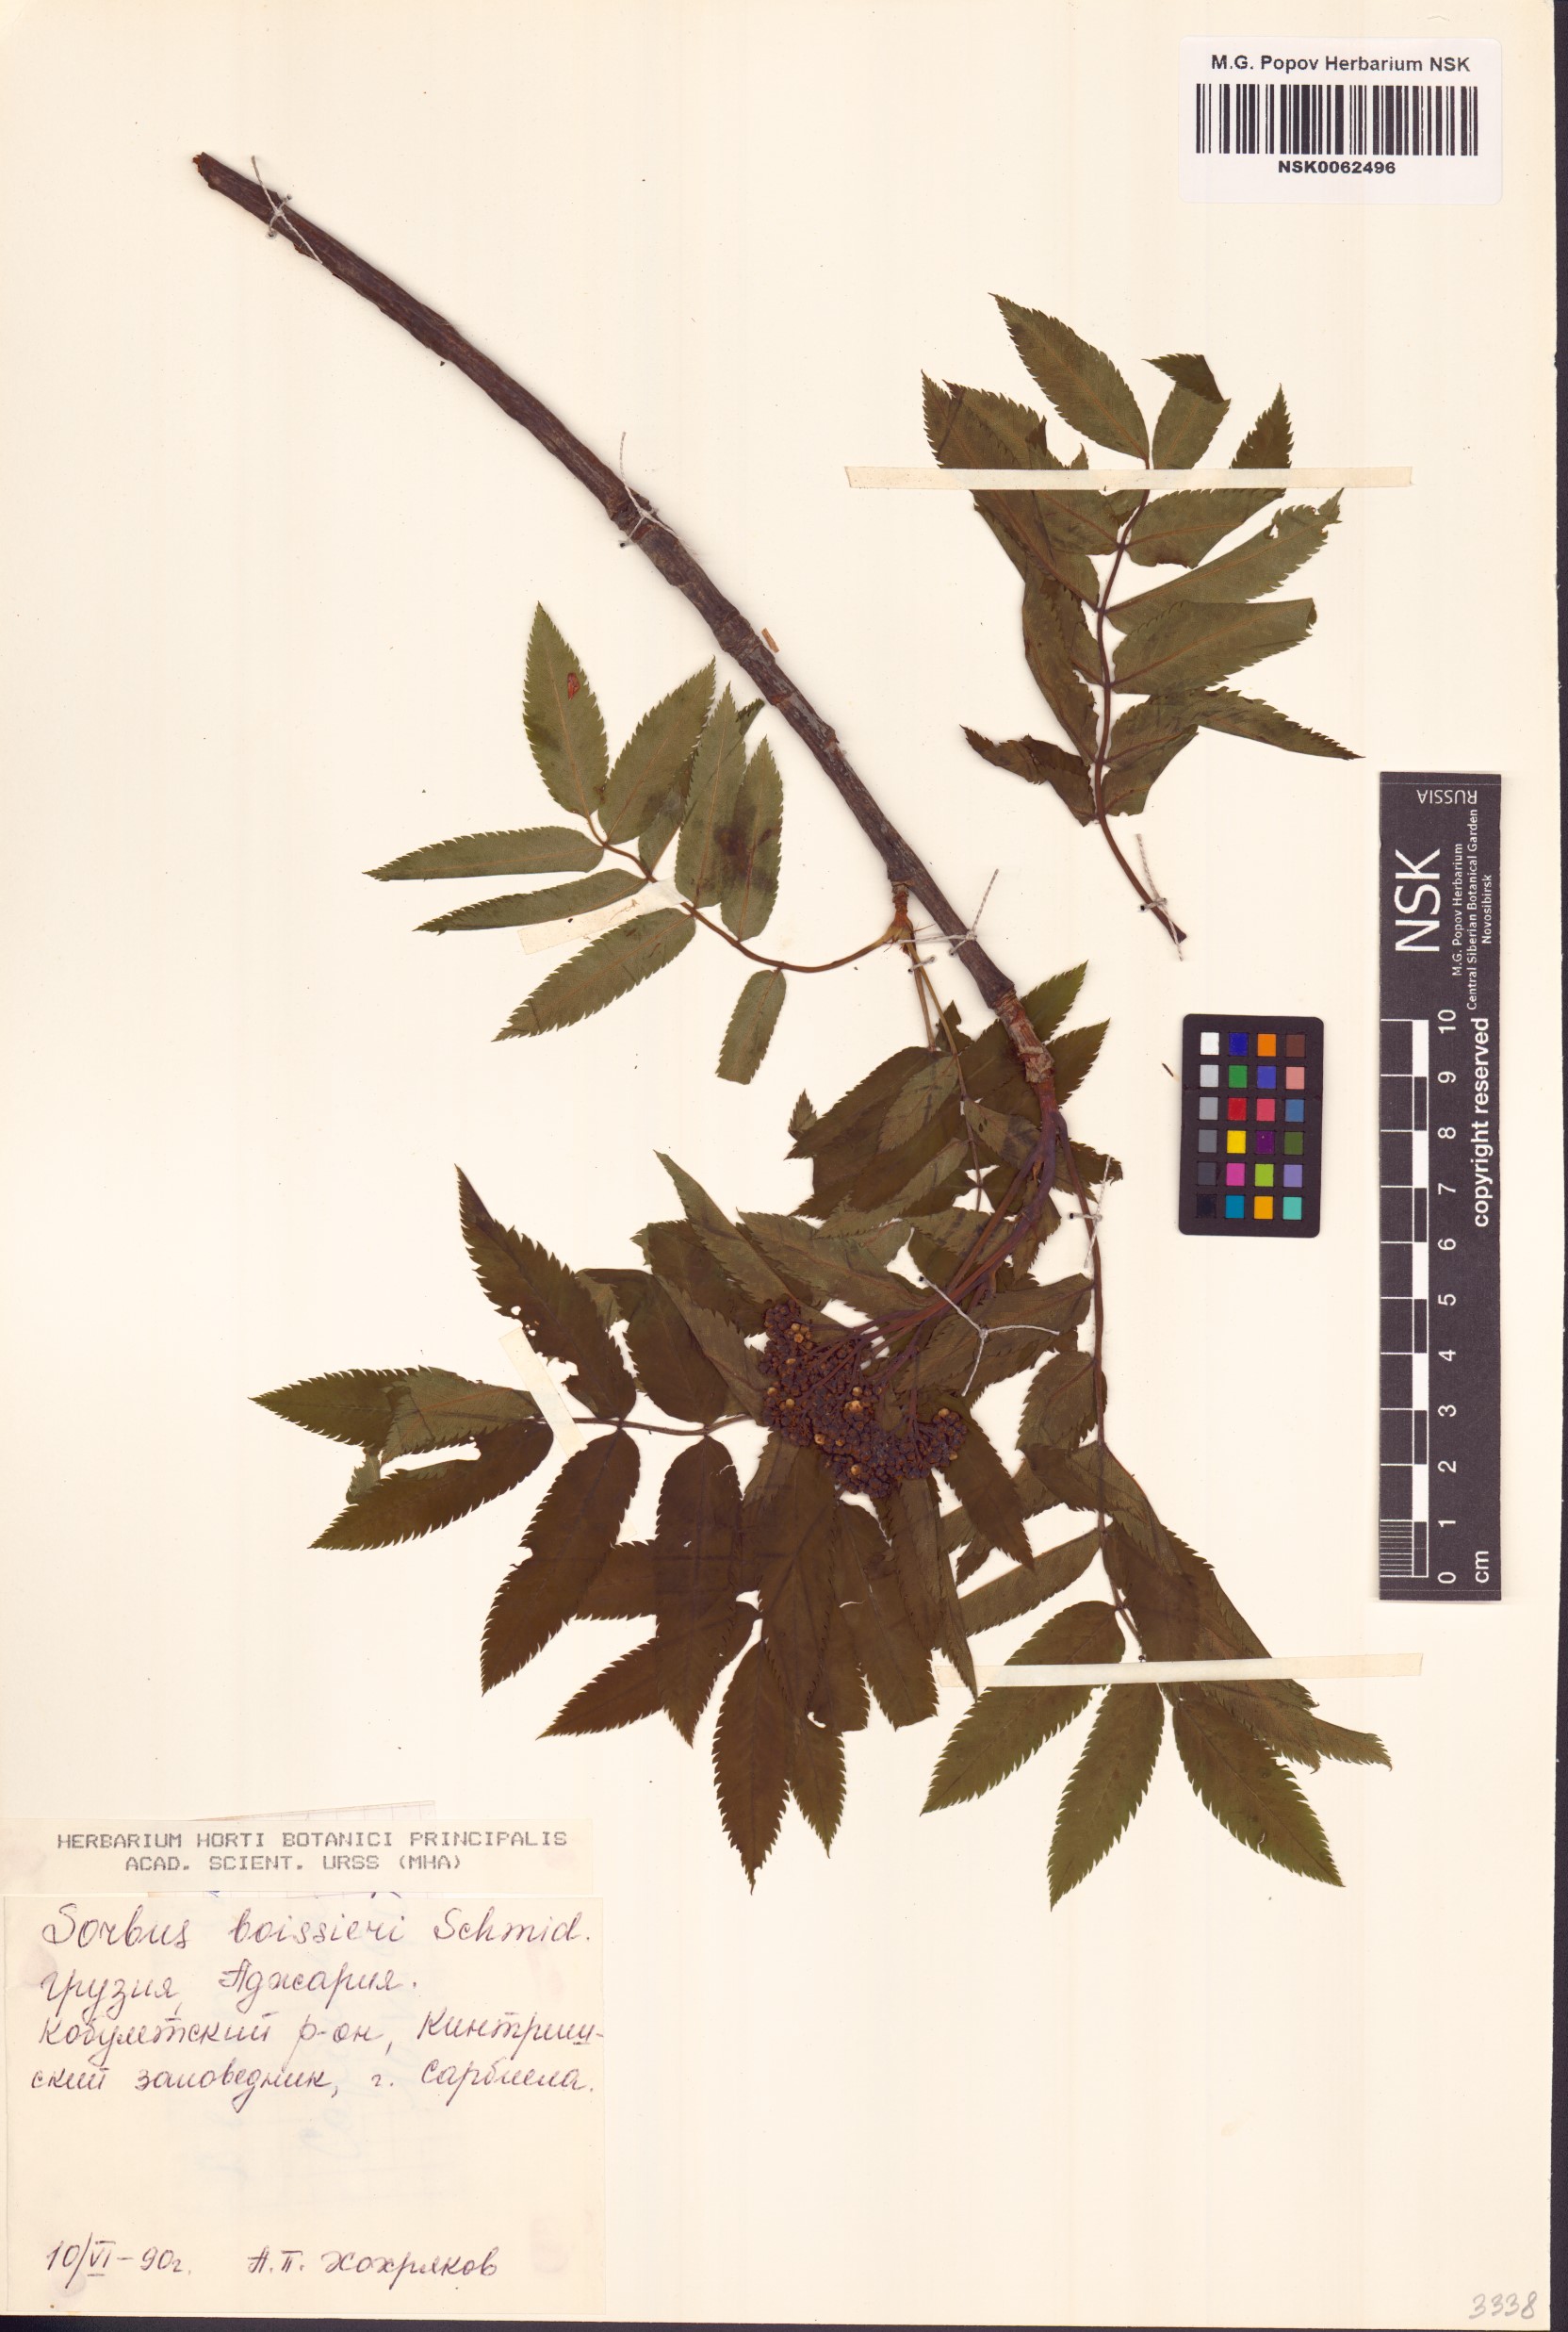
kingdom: Plantae
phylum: Tracheophyta
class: Magnoliopsida
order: Rosales
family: Rosaceae
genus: Sorbus
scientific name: Sorbus aucuparia
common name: Rowan
